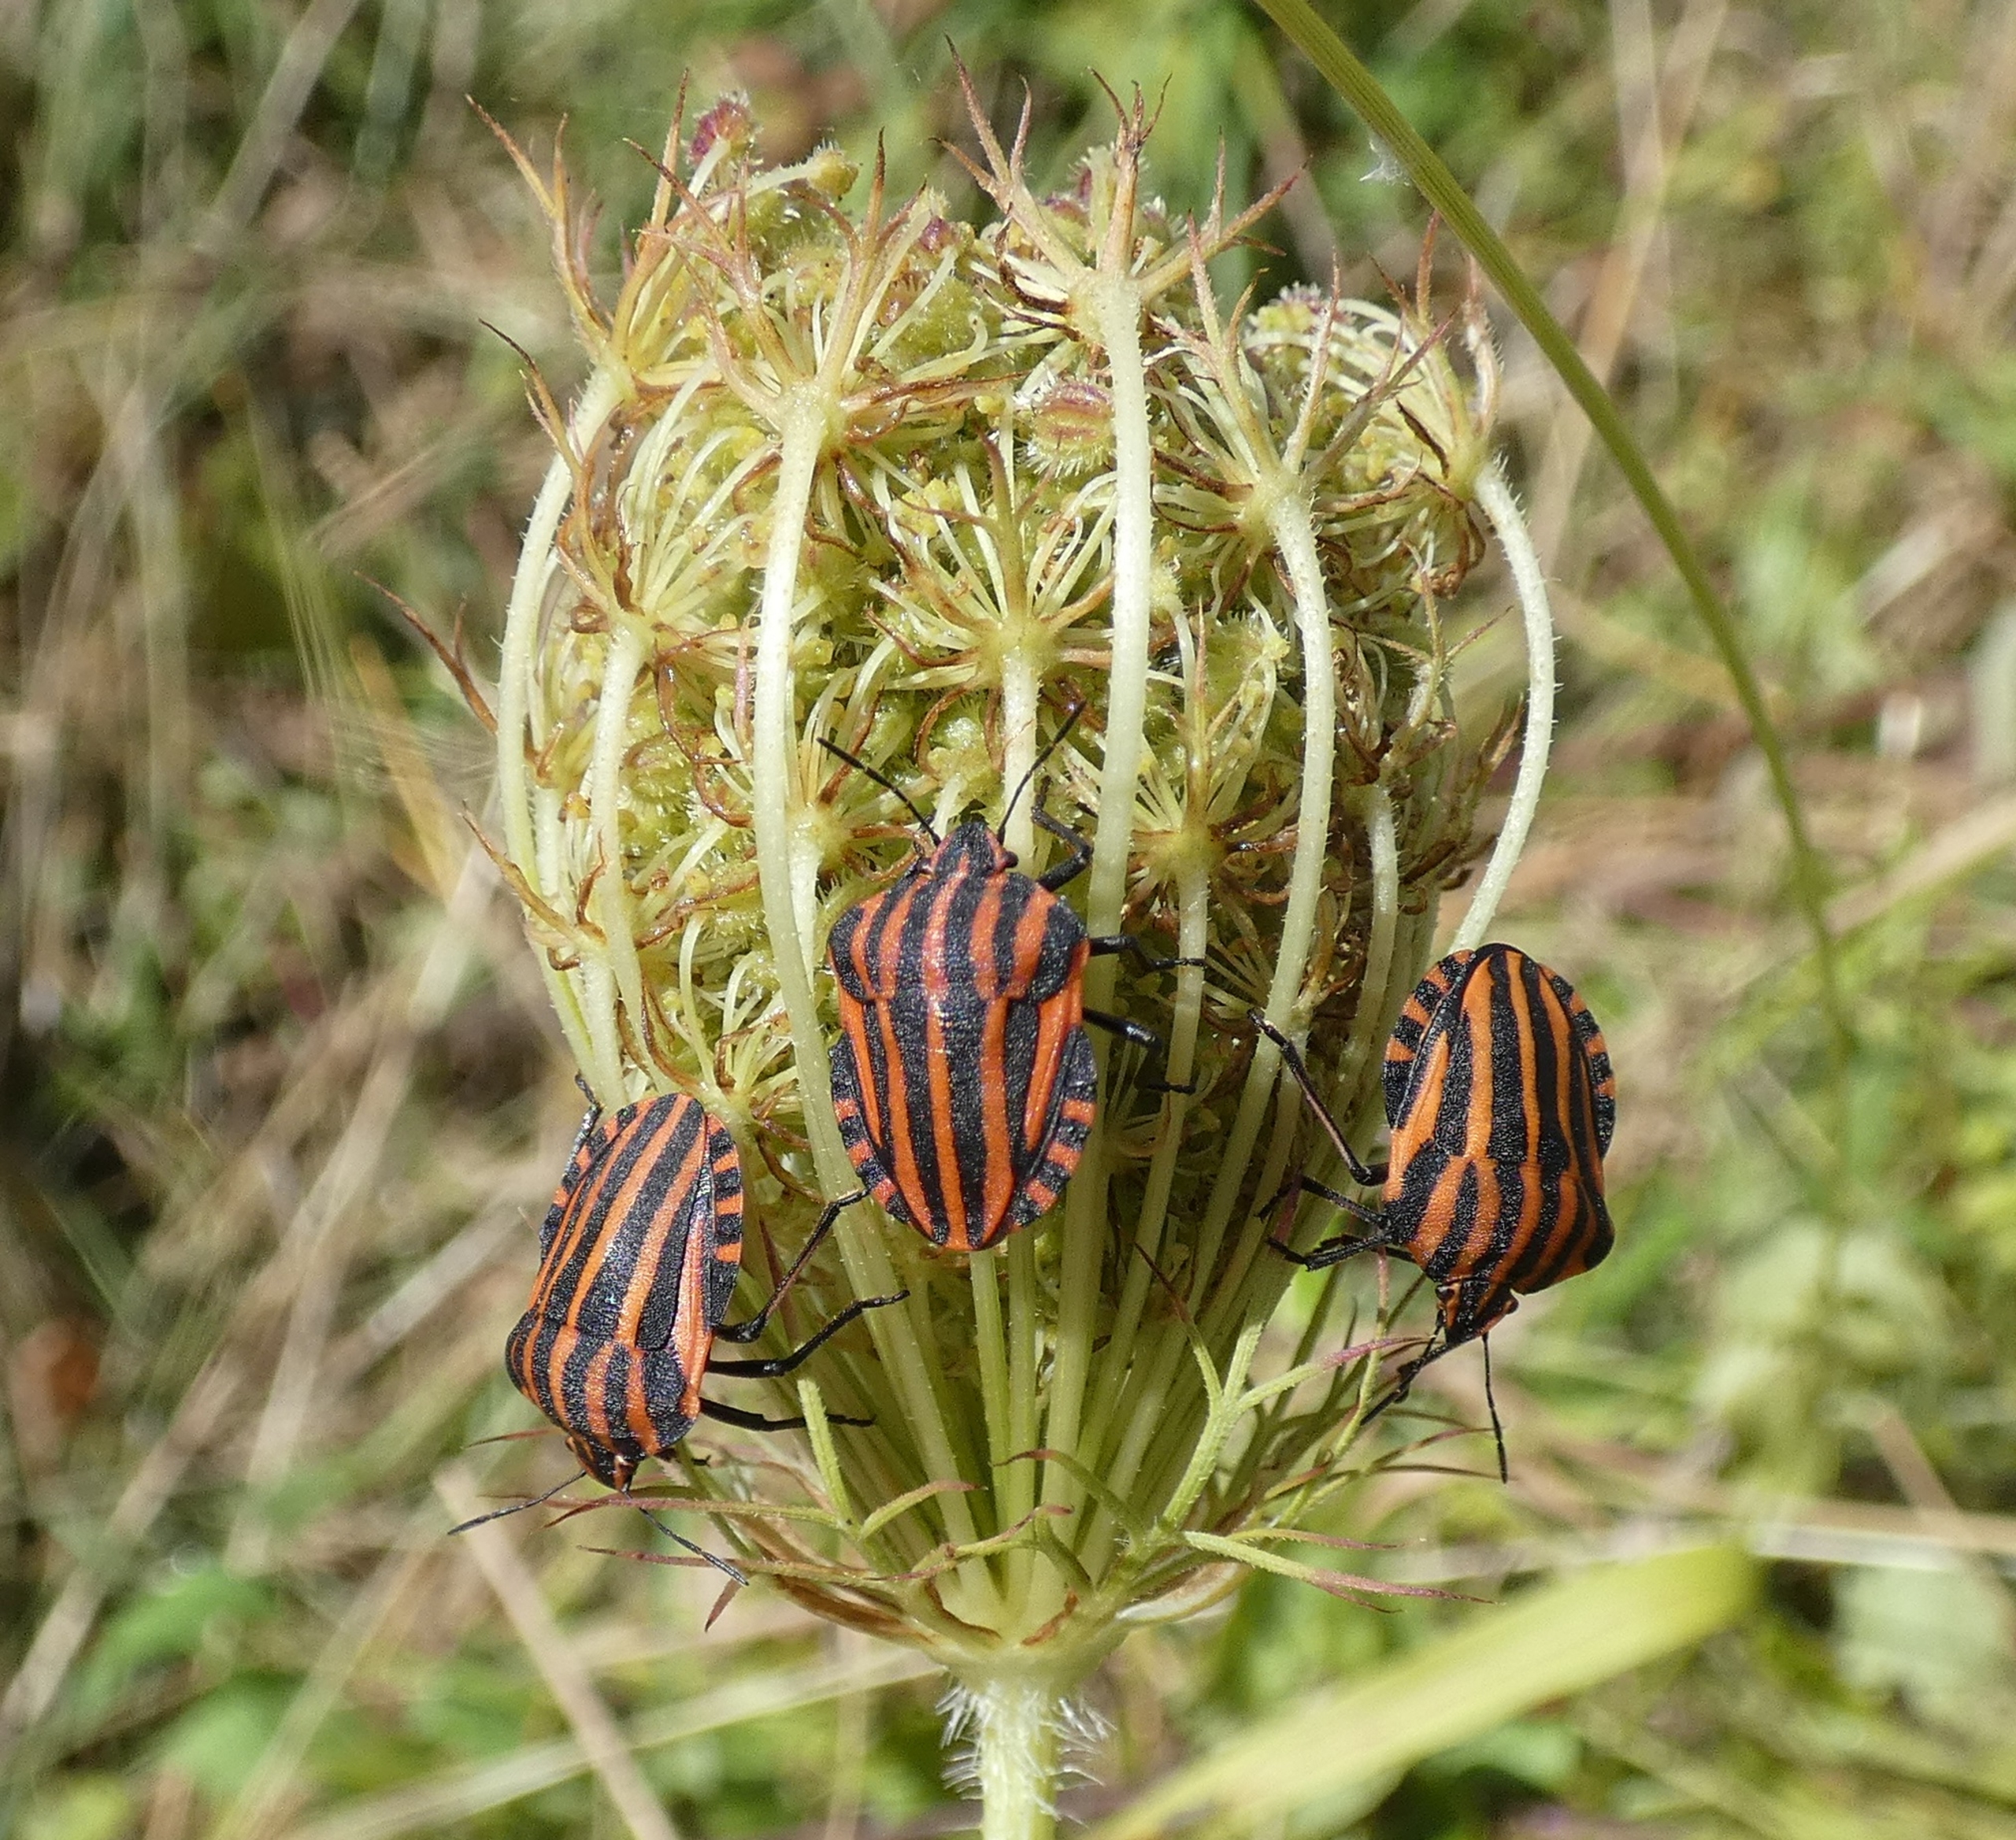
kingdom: Animalia
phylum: Arthropoda
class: Insecta
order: Hemiptera
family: Pentatomidae
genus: Graphosoma
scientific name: Graphosoma italicum
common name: Stribetæge
